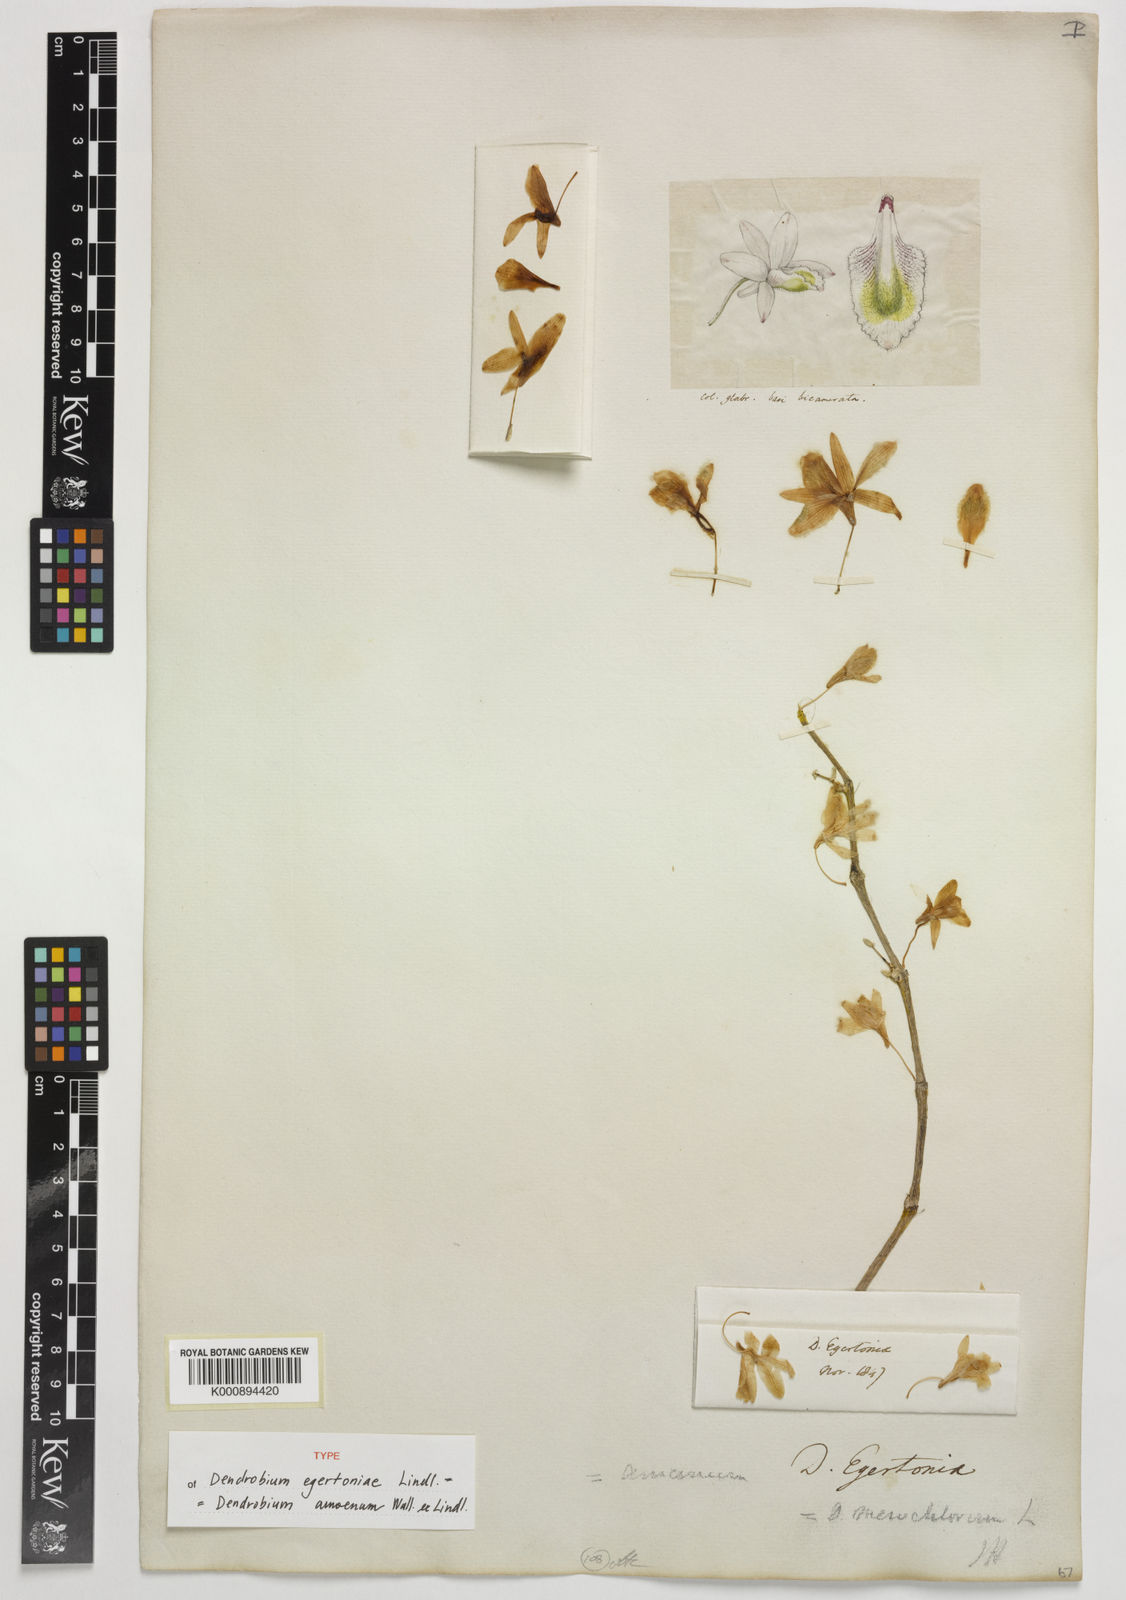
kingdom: Plantae
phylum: Tracheophyta
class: Liliopsida
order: Asparagales
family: Orchidaceae
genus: Dendrobium
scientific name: Dendrobium amoenum
